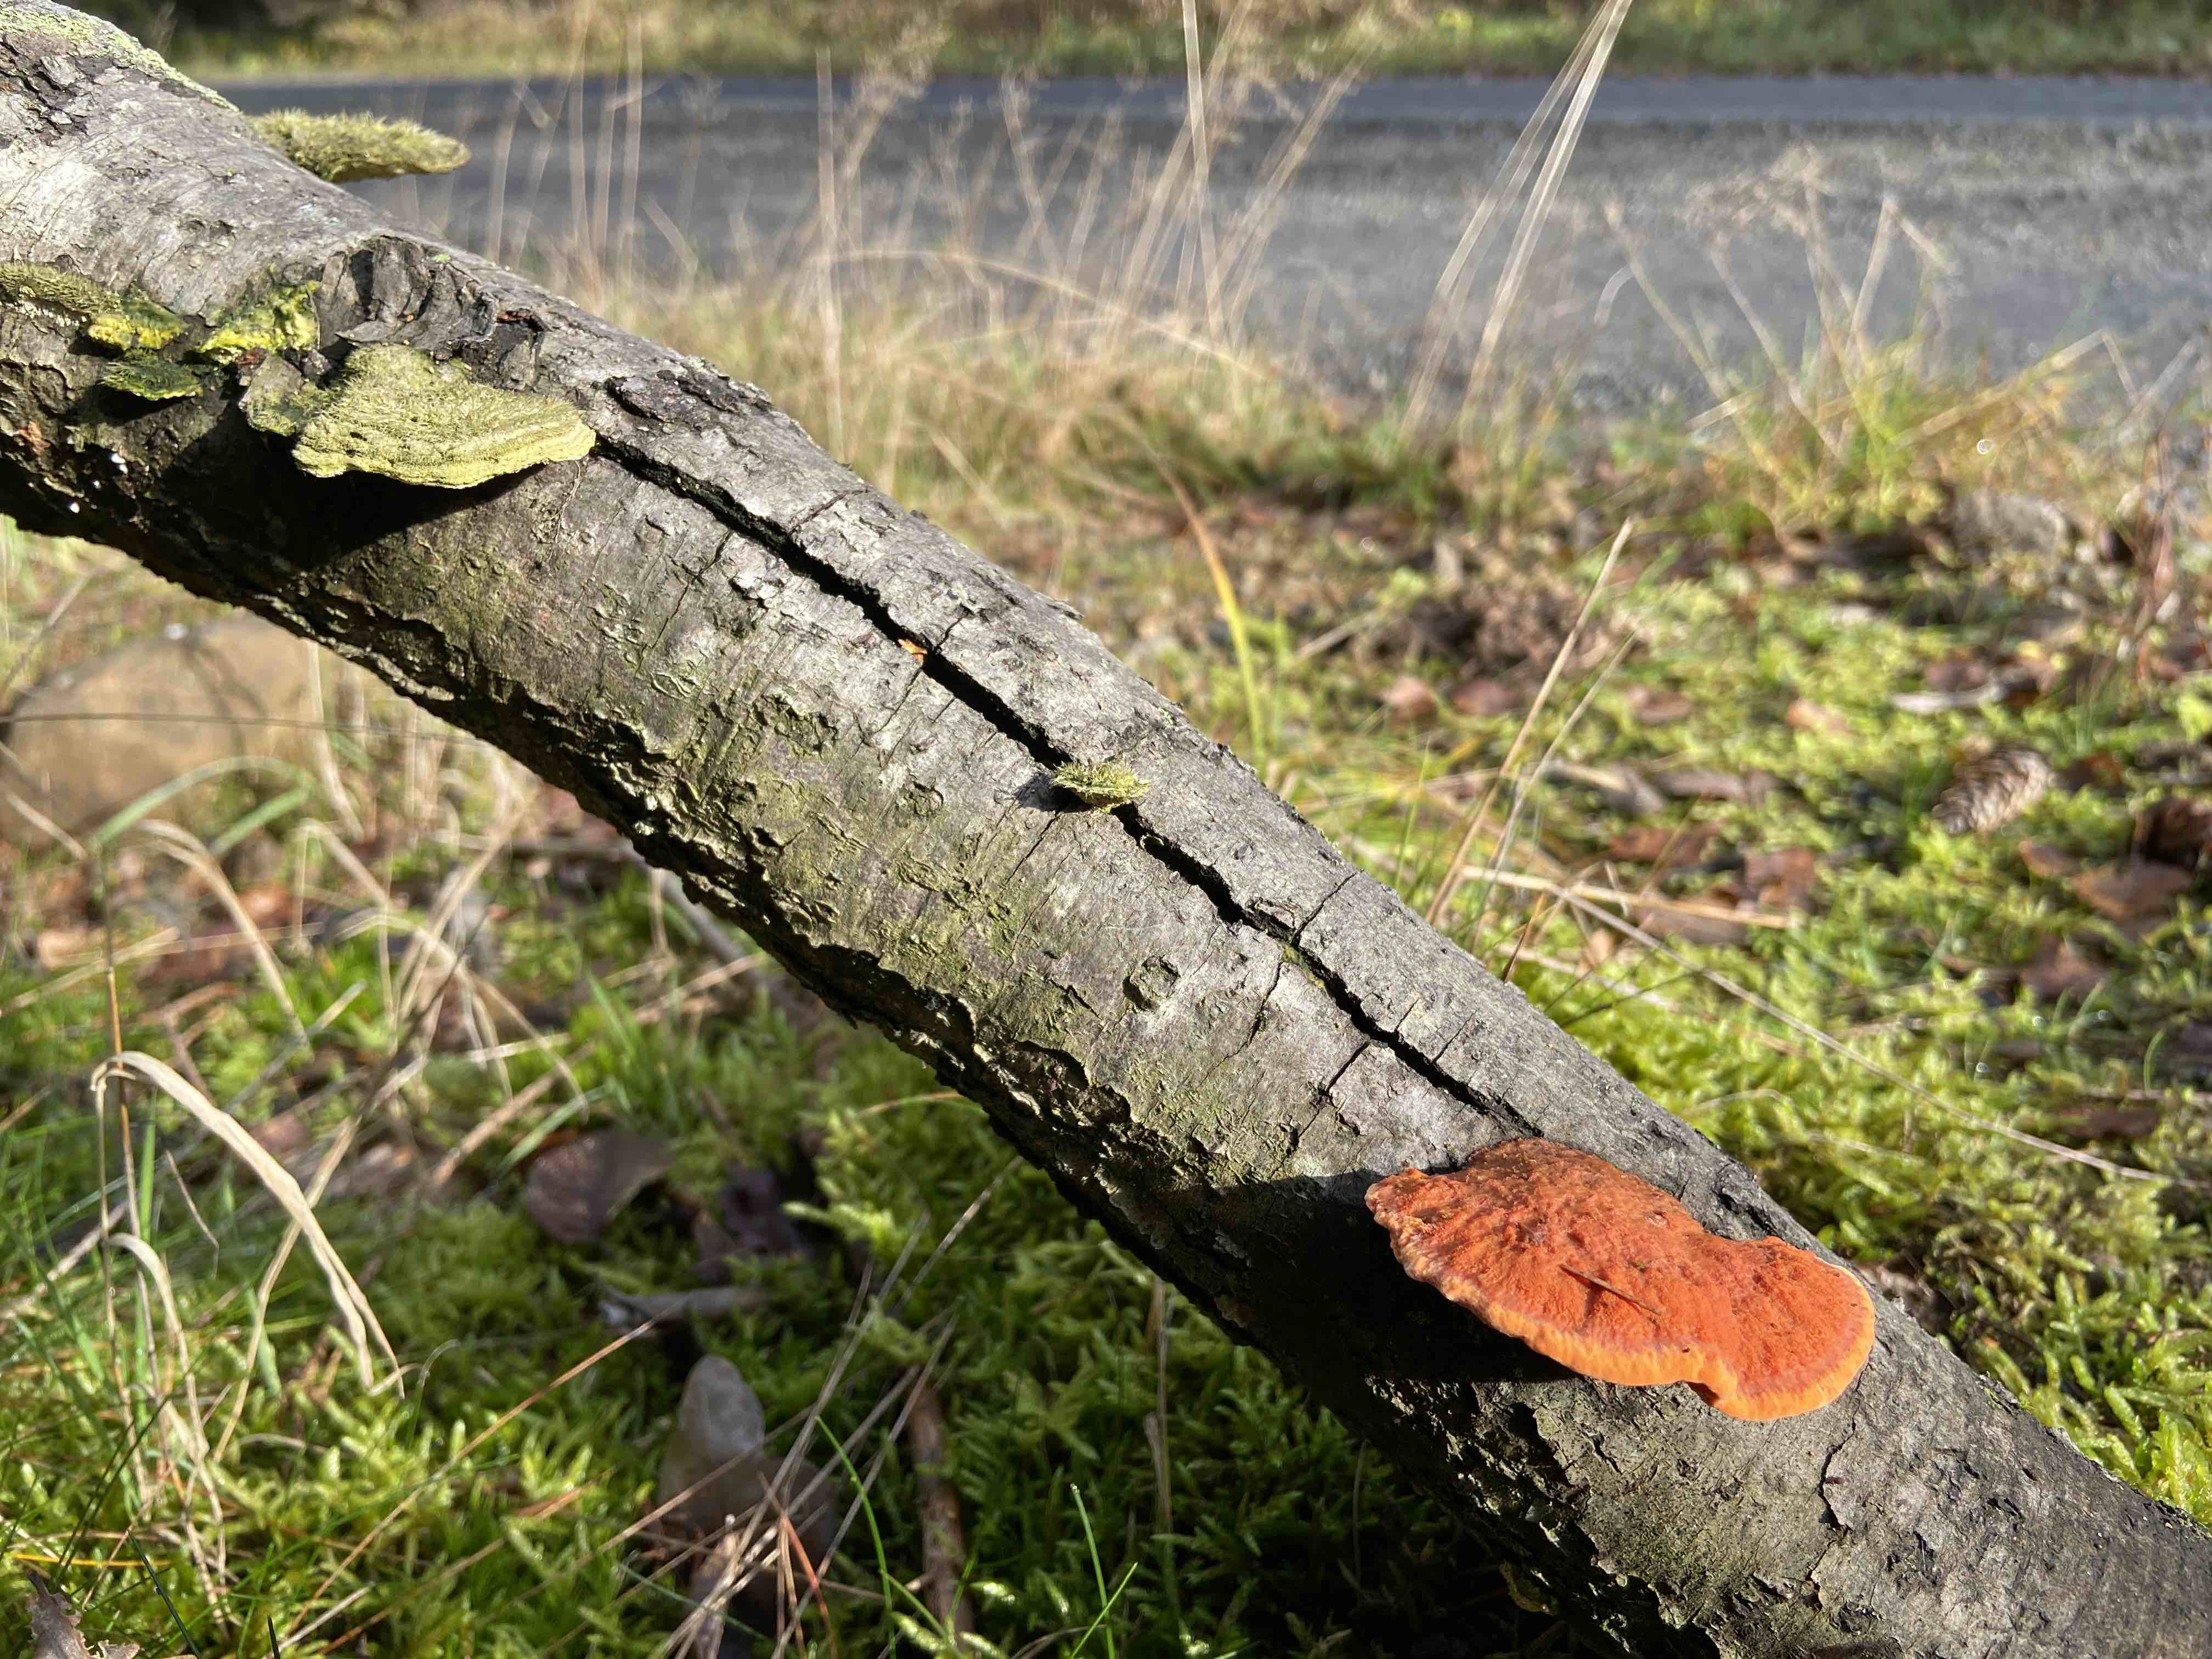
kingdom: Fungi
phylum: Basidiomycota
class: Agaricomycetes
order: Polyporales
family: Polyporaceae
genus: Trametes
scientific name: Trametes cinnabarina
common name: cinnoberporesvamp
